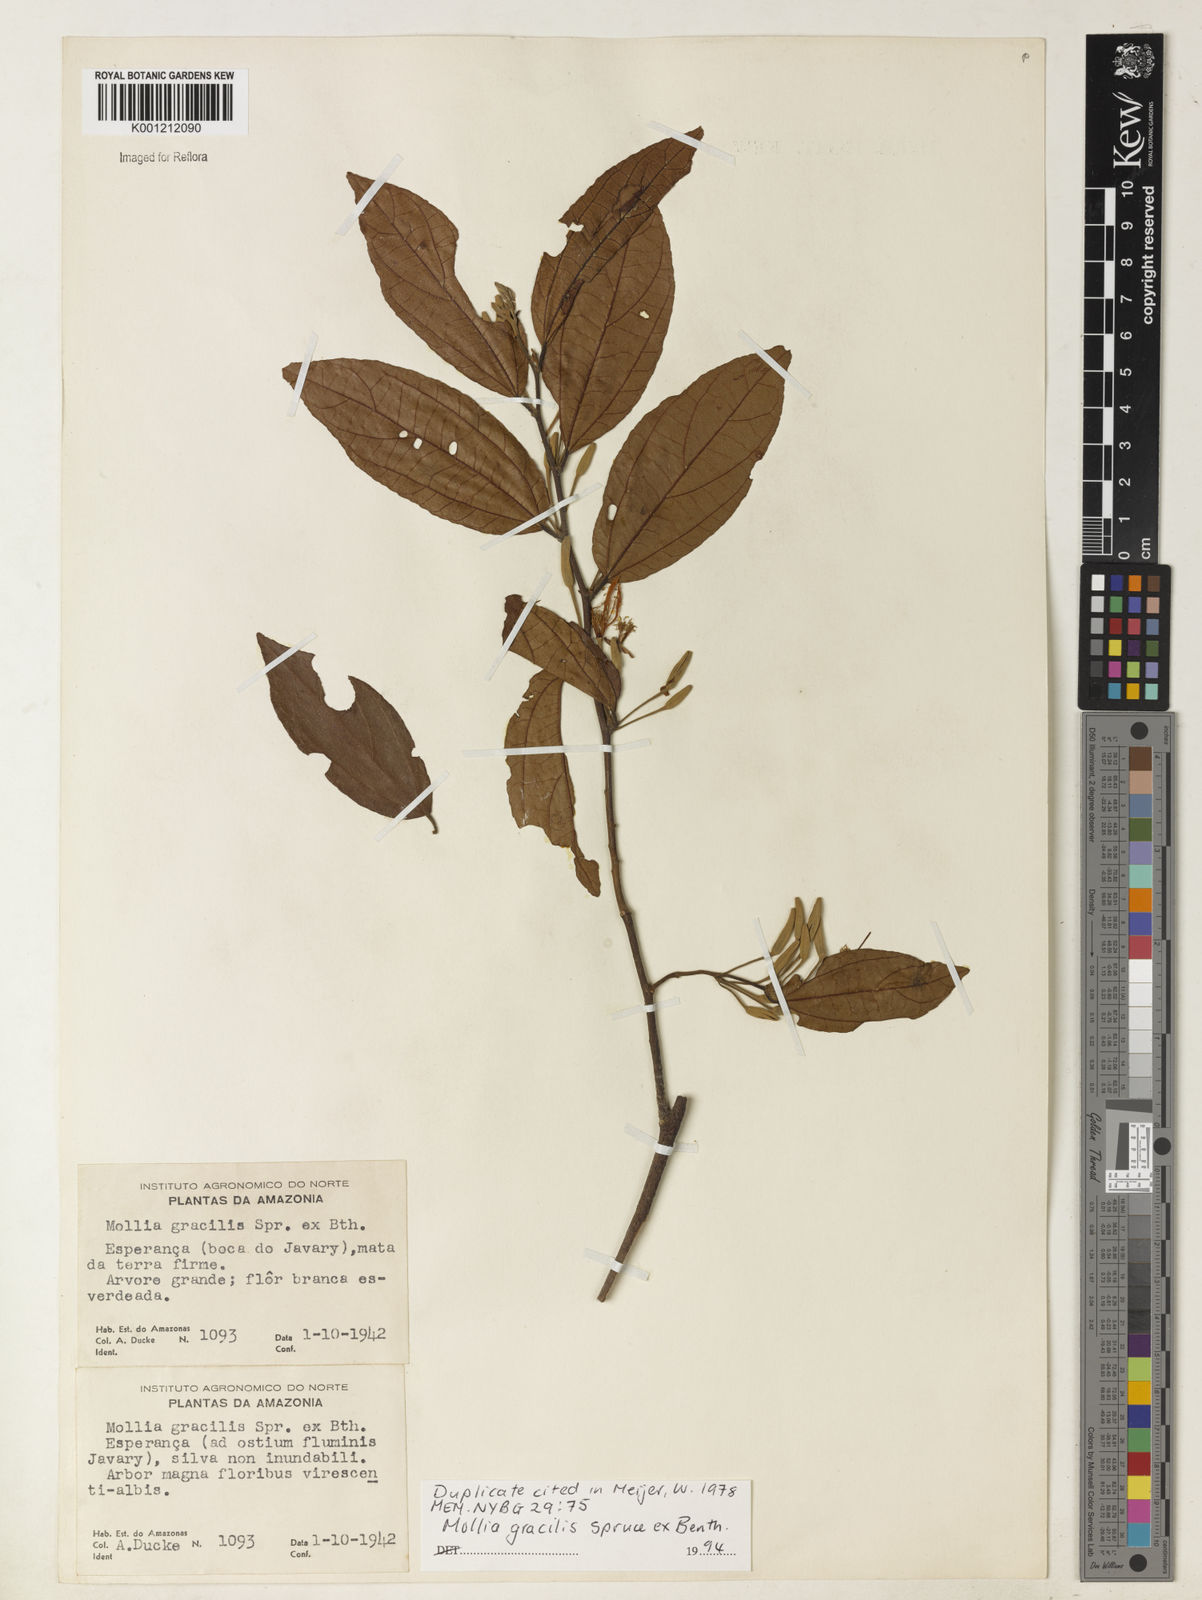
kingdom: Plantae
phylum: Tracheophyta
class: Magnoliopsida
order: Malvales
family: Malvaceae
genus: Mollia
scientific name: Mollia gracilis
